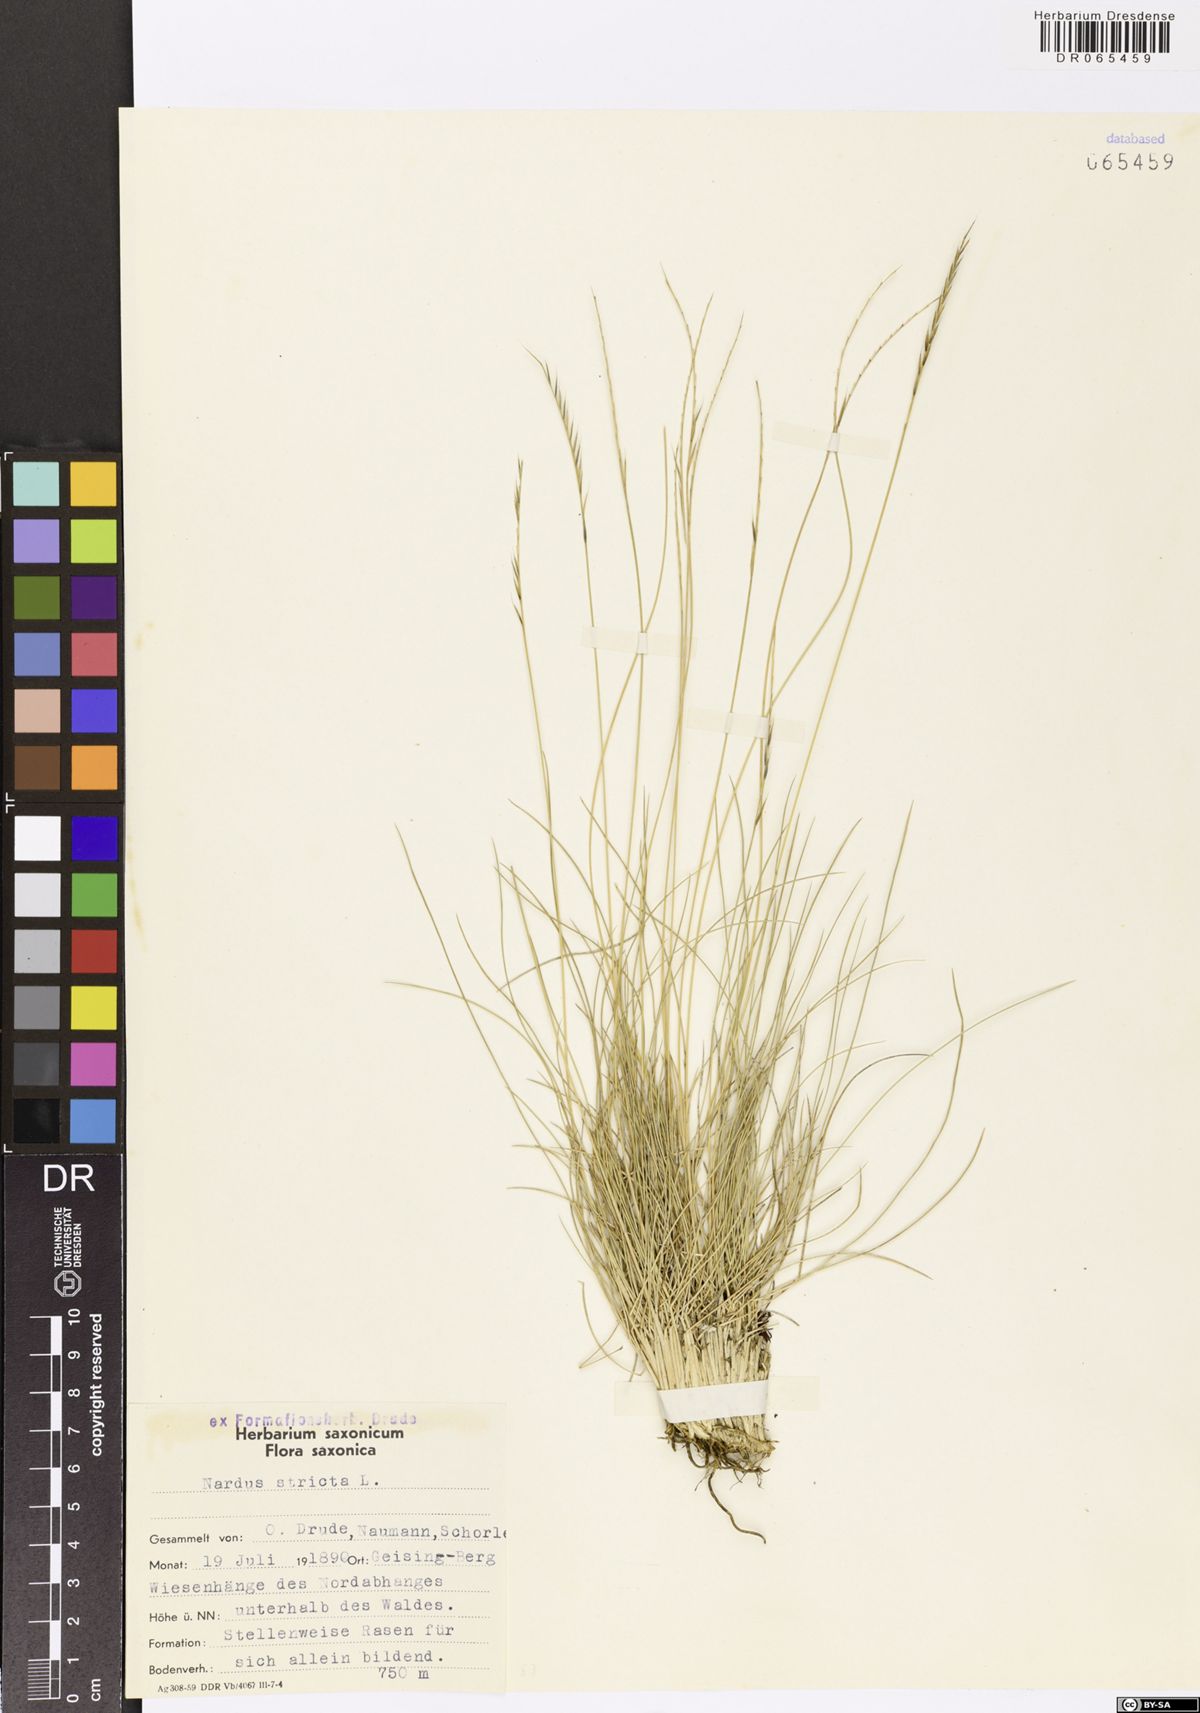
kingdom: Plantae
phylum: Tracheophyta
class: Liliopsida
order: Poales
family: Poaceae
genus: Nardus
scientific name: Nardus stricta
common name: Mat-grass
